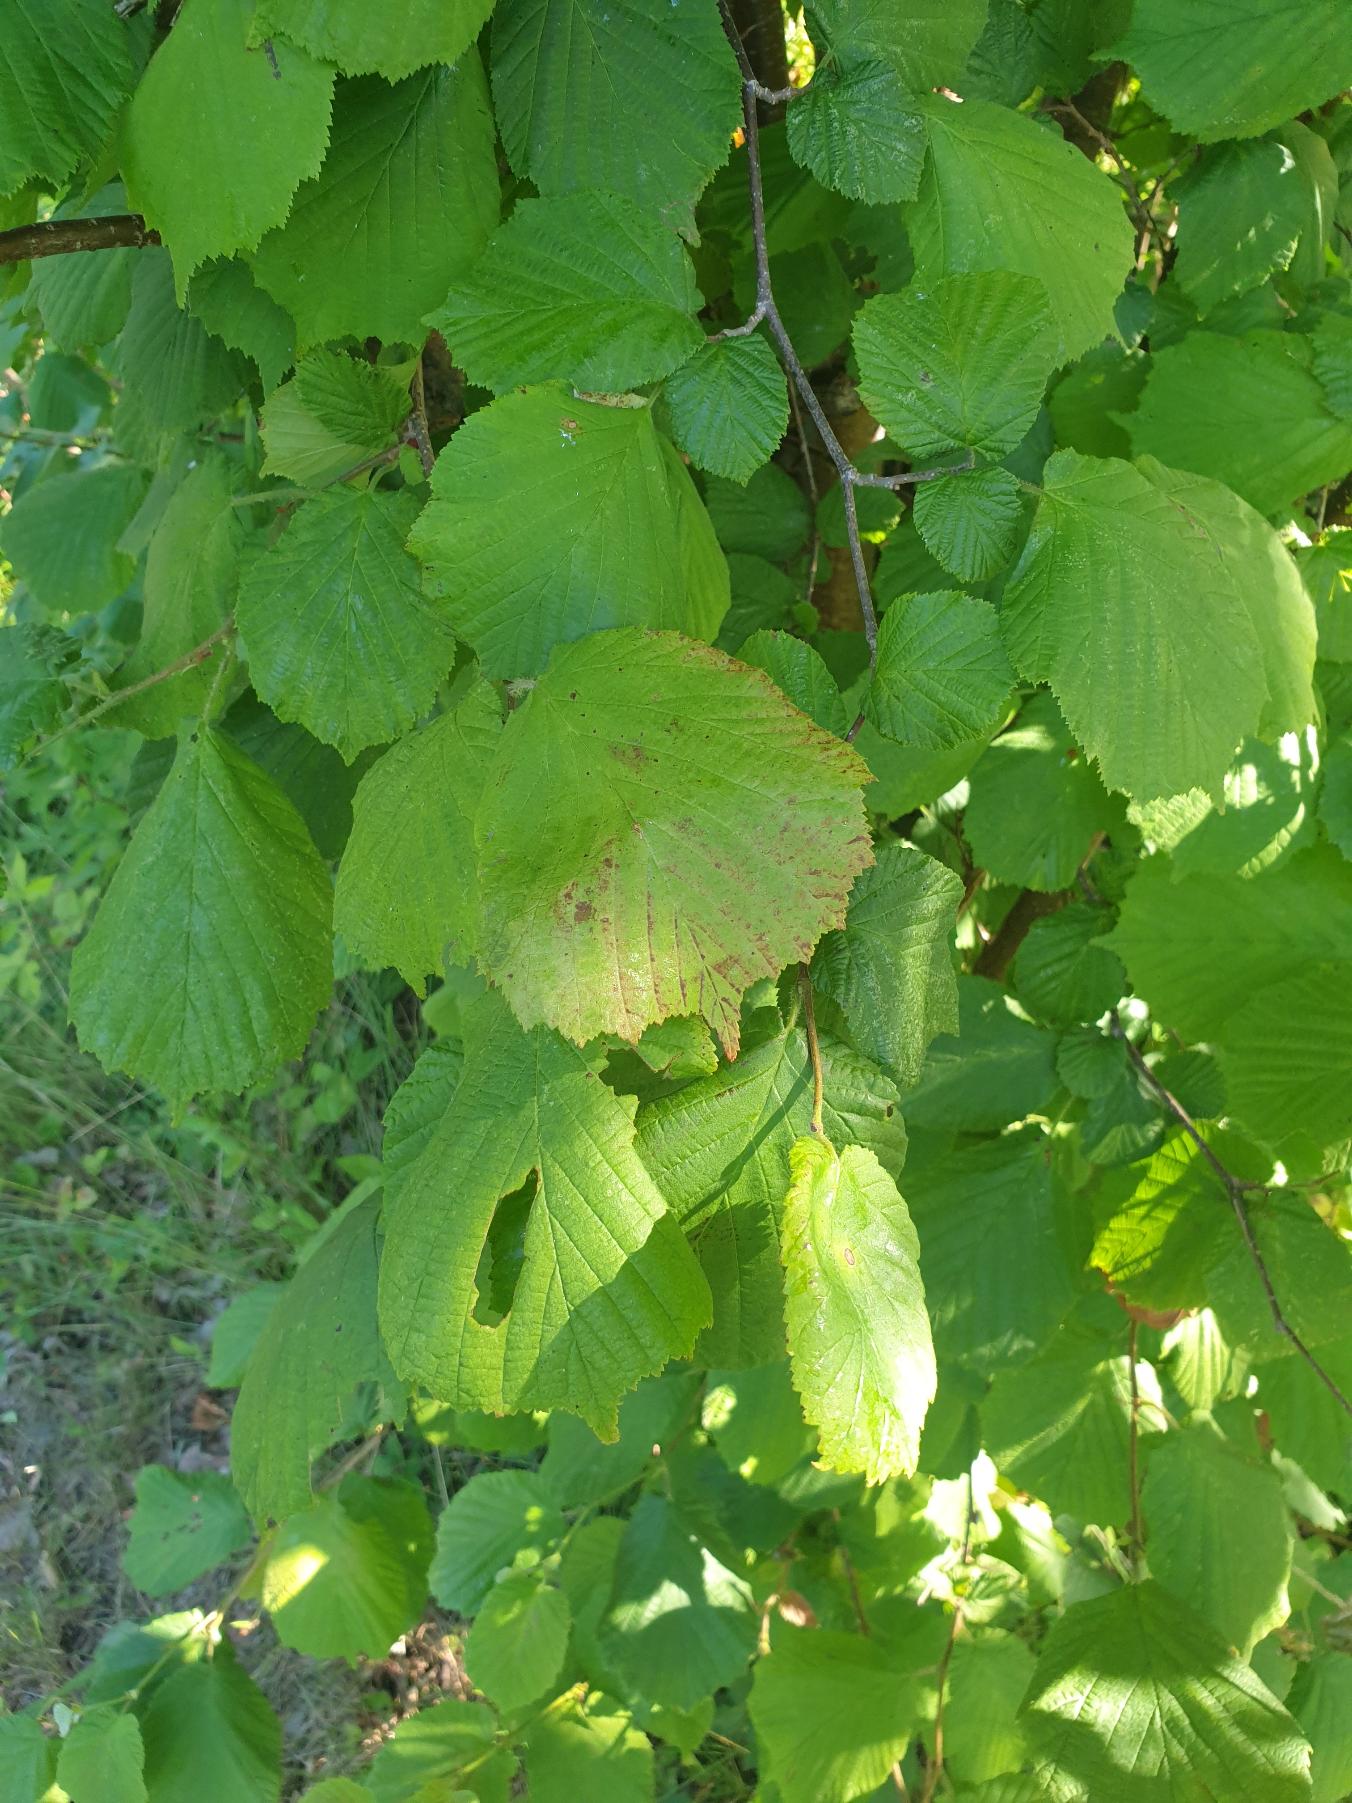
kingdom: Plantae
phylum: Tracheophyta
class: Magnoliopsida
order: Fagales
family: Betulaceae
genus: Corylus
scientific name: Corylus avellana
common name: Hassel
